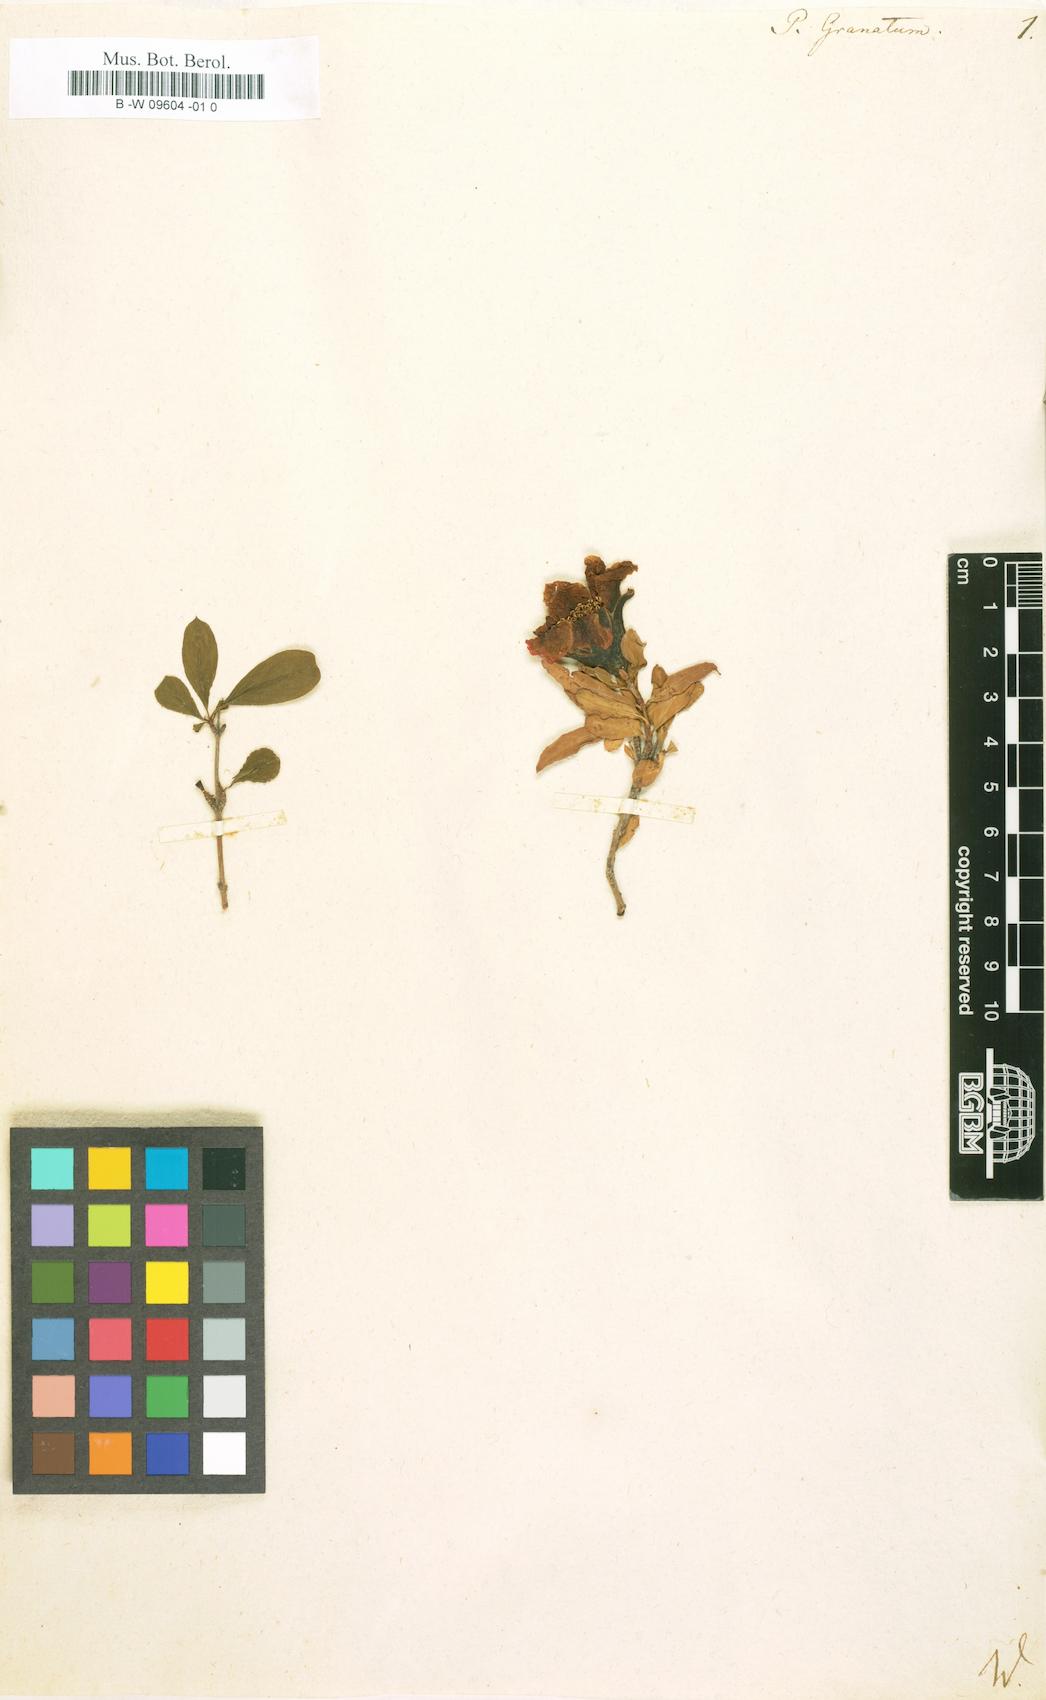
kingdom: Plantae
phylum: Tracheophyta
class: Magnoliopsida
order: Myrtales
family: Lythraceae
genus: Punica
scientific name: Punica granatum
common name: Pomegranate
